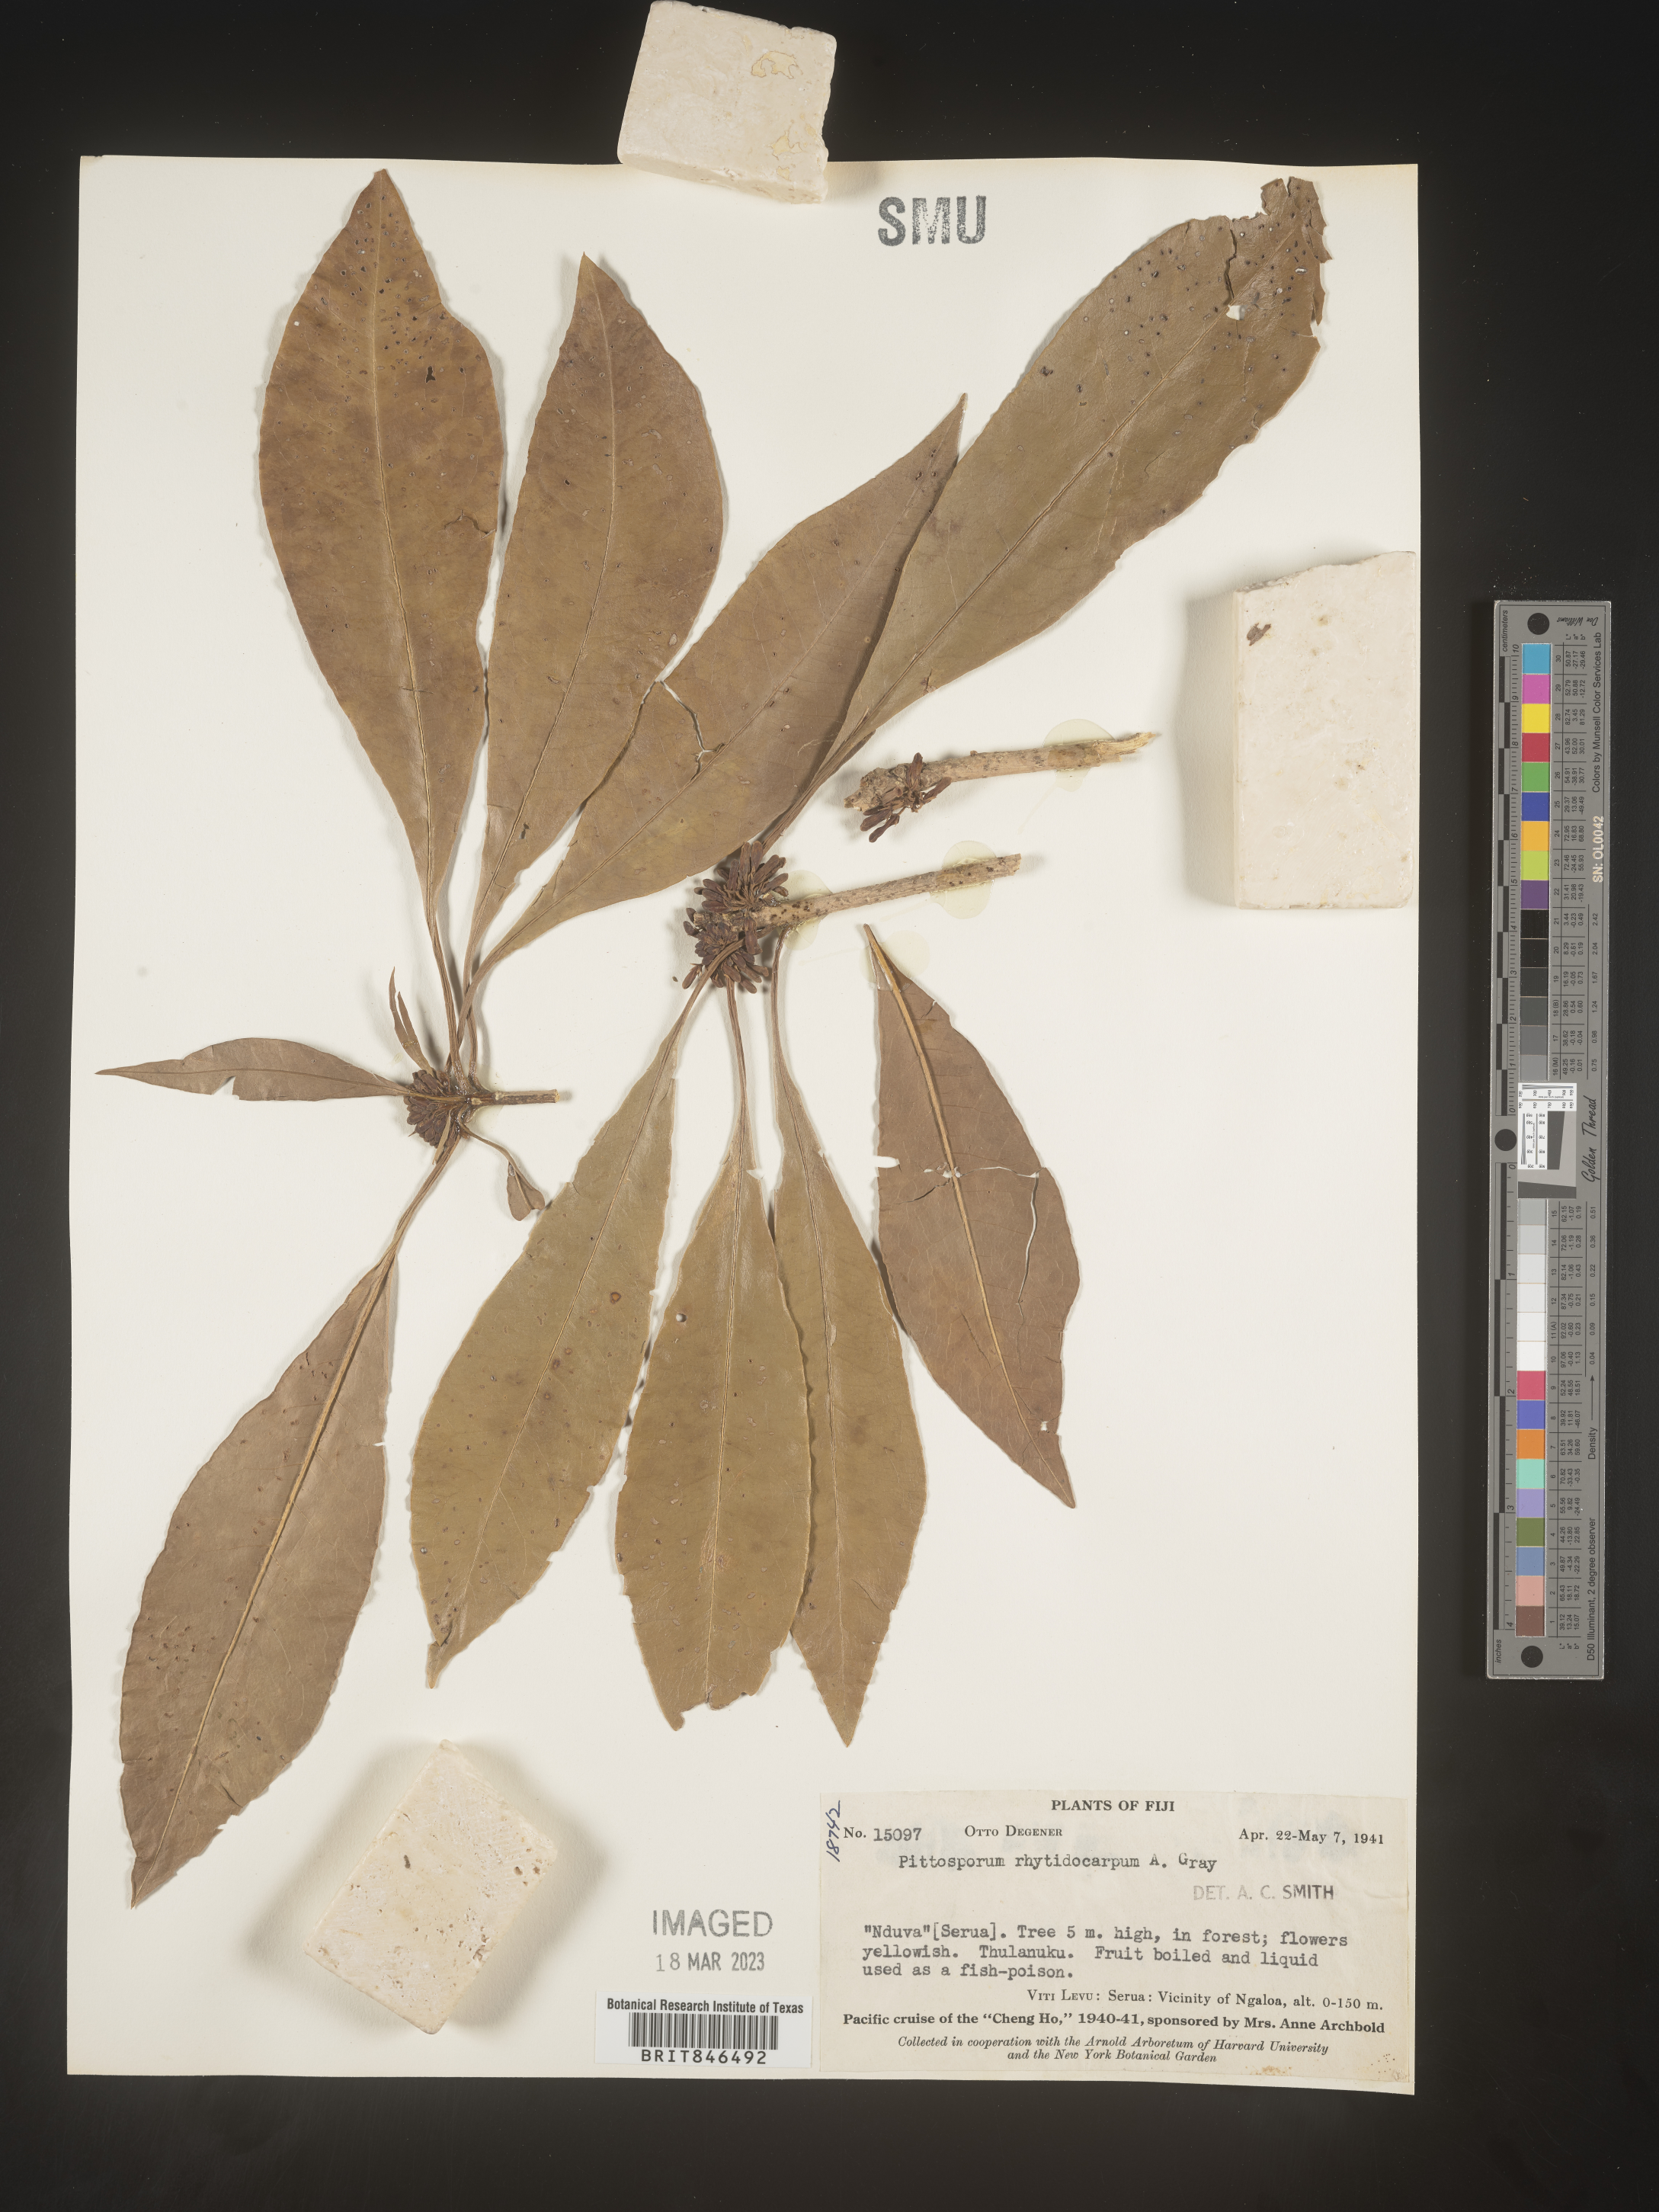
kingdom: Plantae
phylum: Tracheophyta
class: Magnoliopsida
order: Apiales
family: Pittosporaceae
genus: Pittosporum
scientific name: Pittosporum
